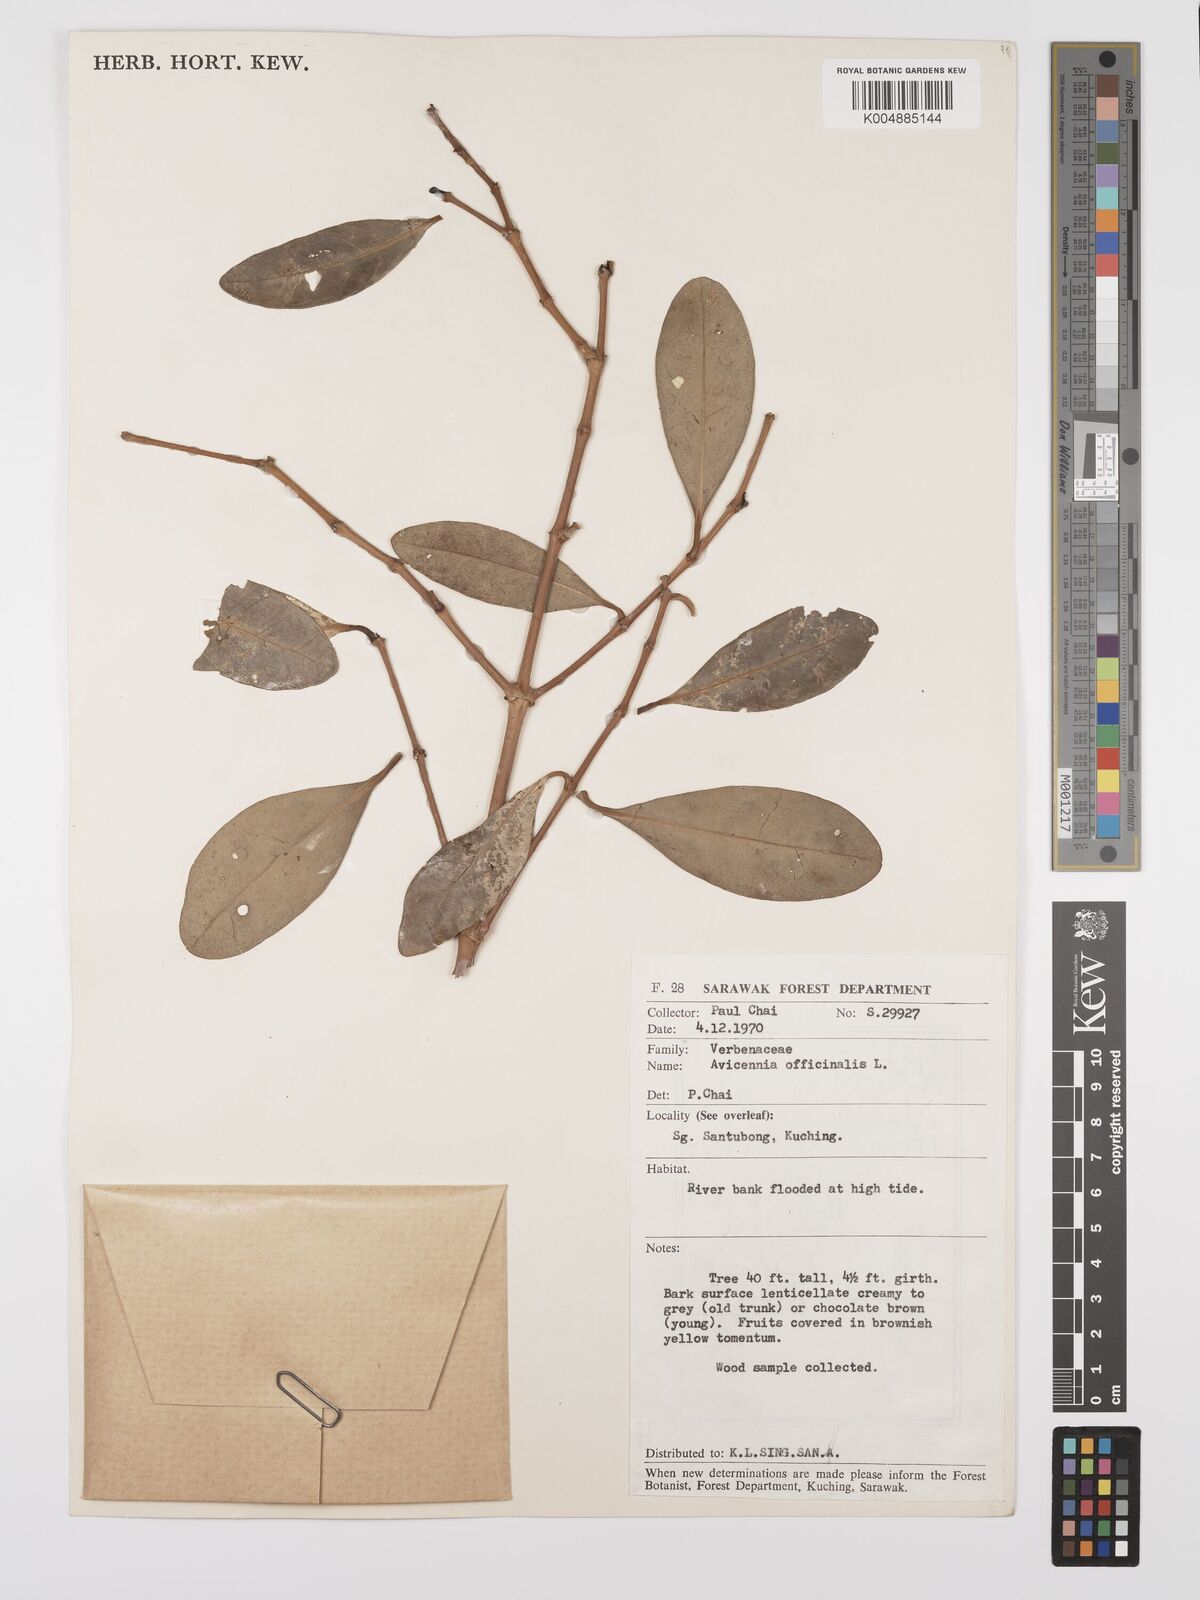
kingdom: Plantae
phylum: Tracheophyta
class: Magnoliopsida
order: Lamiales
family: Acanthaceae
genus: Avicennia
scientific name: Avicennia officinalis
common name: Baen
